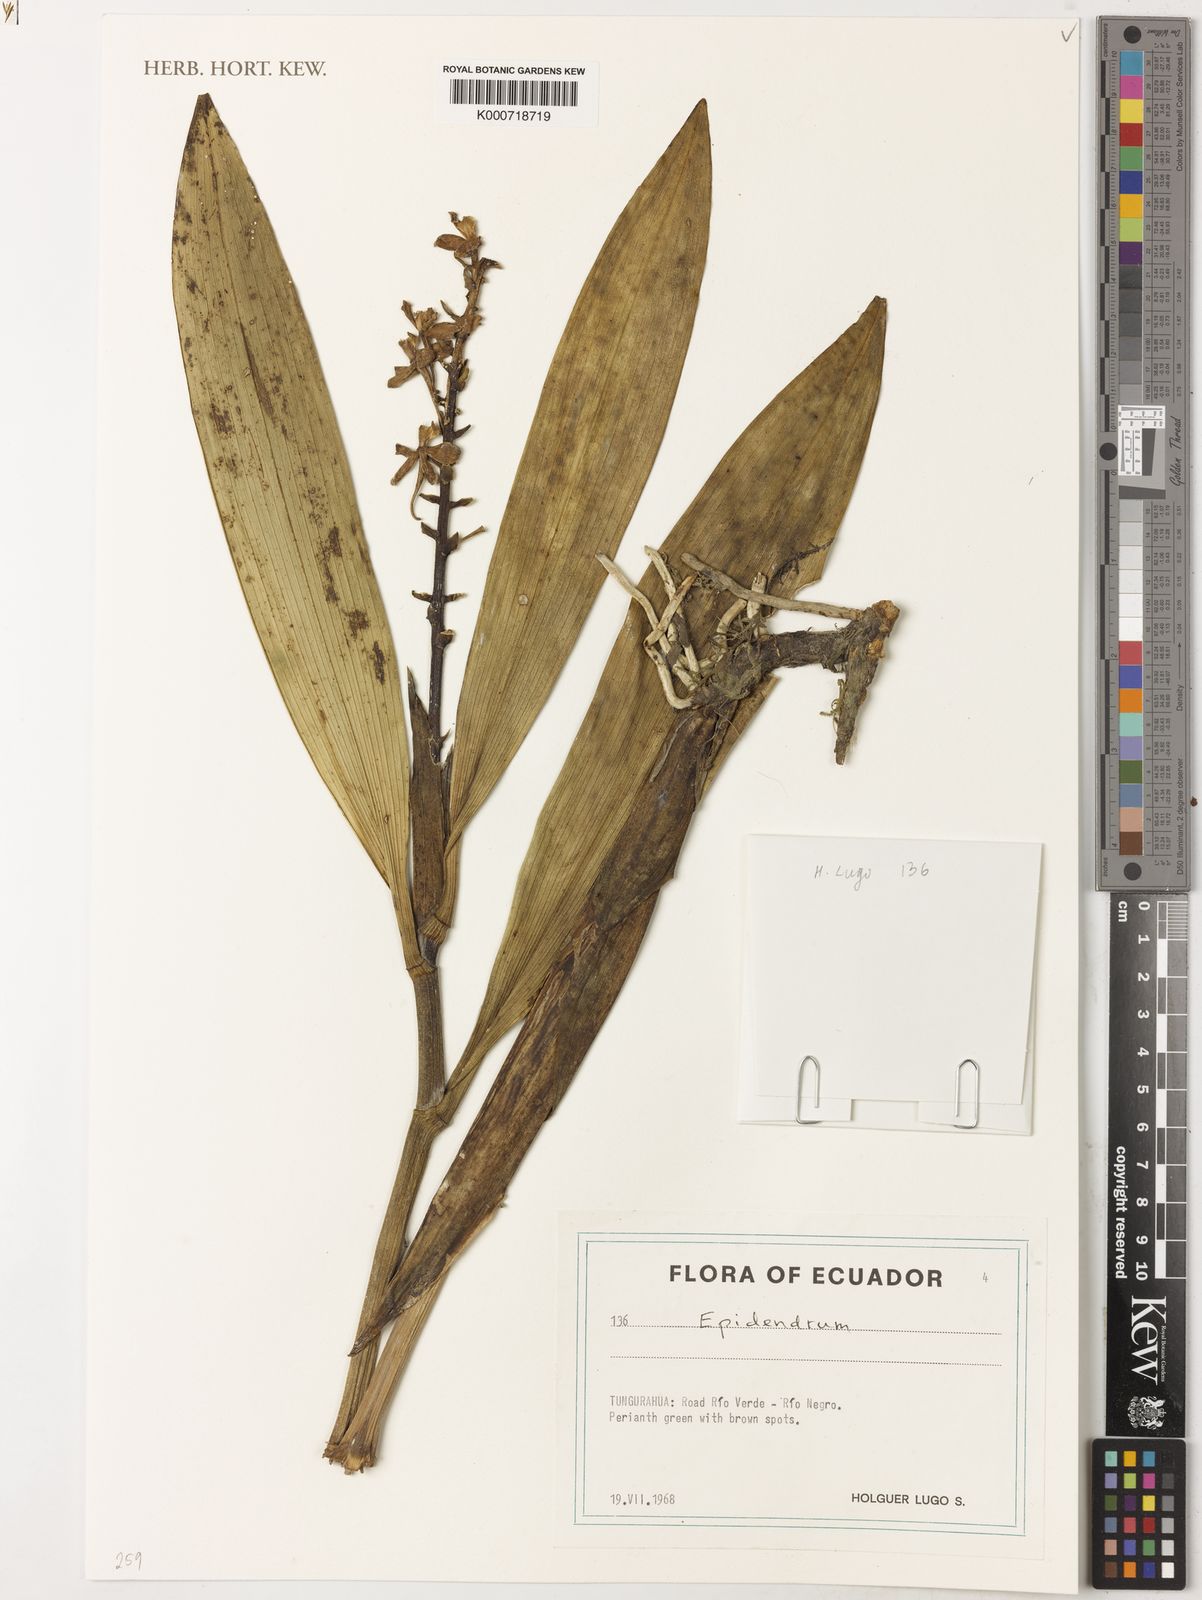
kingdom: Plantae
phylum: Tracheophyta
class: Liliopsida
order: Asparagales
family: Orchidaceae
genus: Epidendrum
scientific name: Epidendrum
